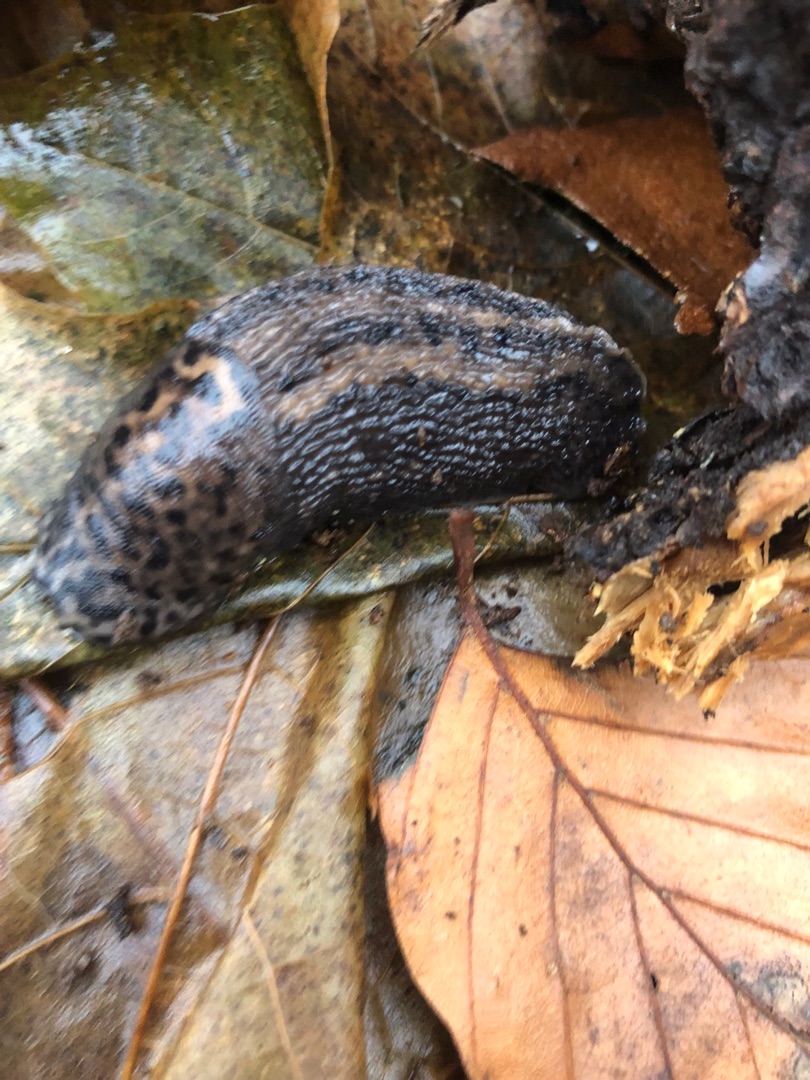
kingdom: Animalia
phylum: Mollusca
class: Gastropoda
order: Stylommatophora
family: Limacidae
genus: Limax
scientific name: Limax maximus
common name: Pantersnegl
